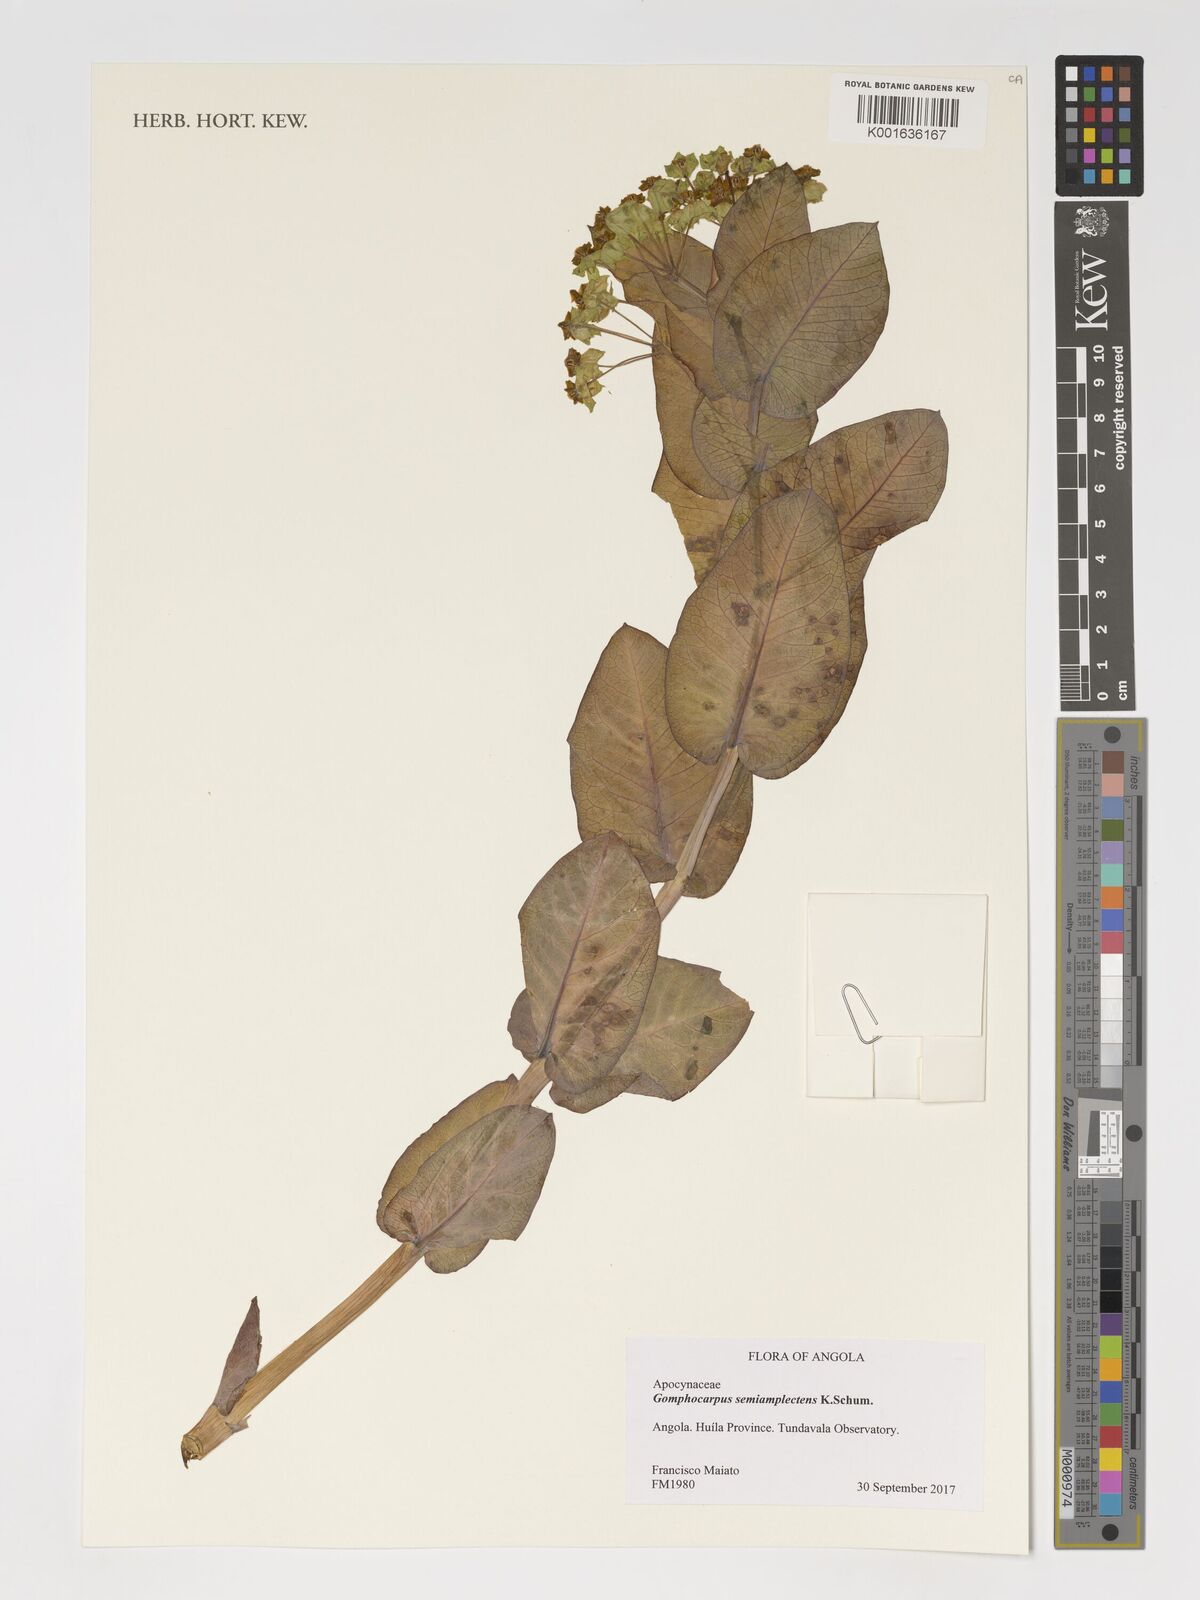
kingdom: Plantae
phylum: Tracheophyta
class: Magnoliopsida
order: Gentianales
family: Apocynaceae
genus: Gomphocarpus
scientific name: Gomphocarpus semiamplectens
